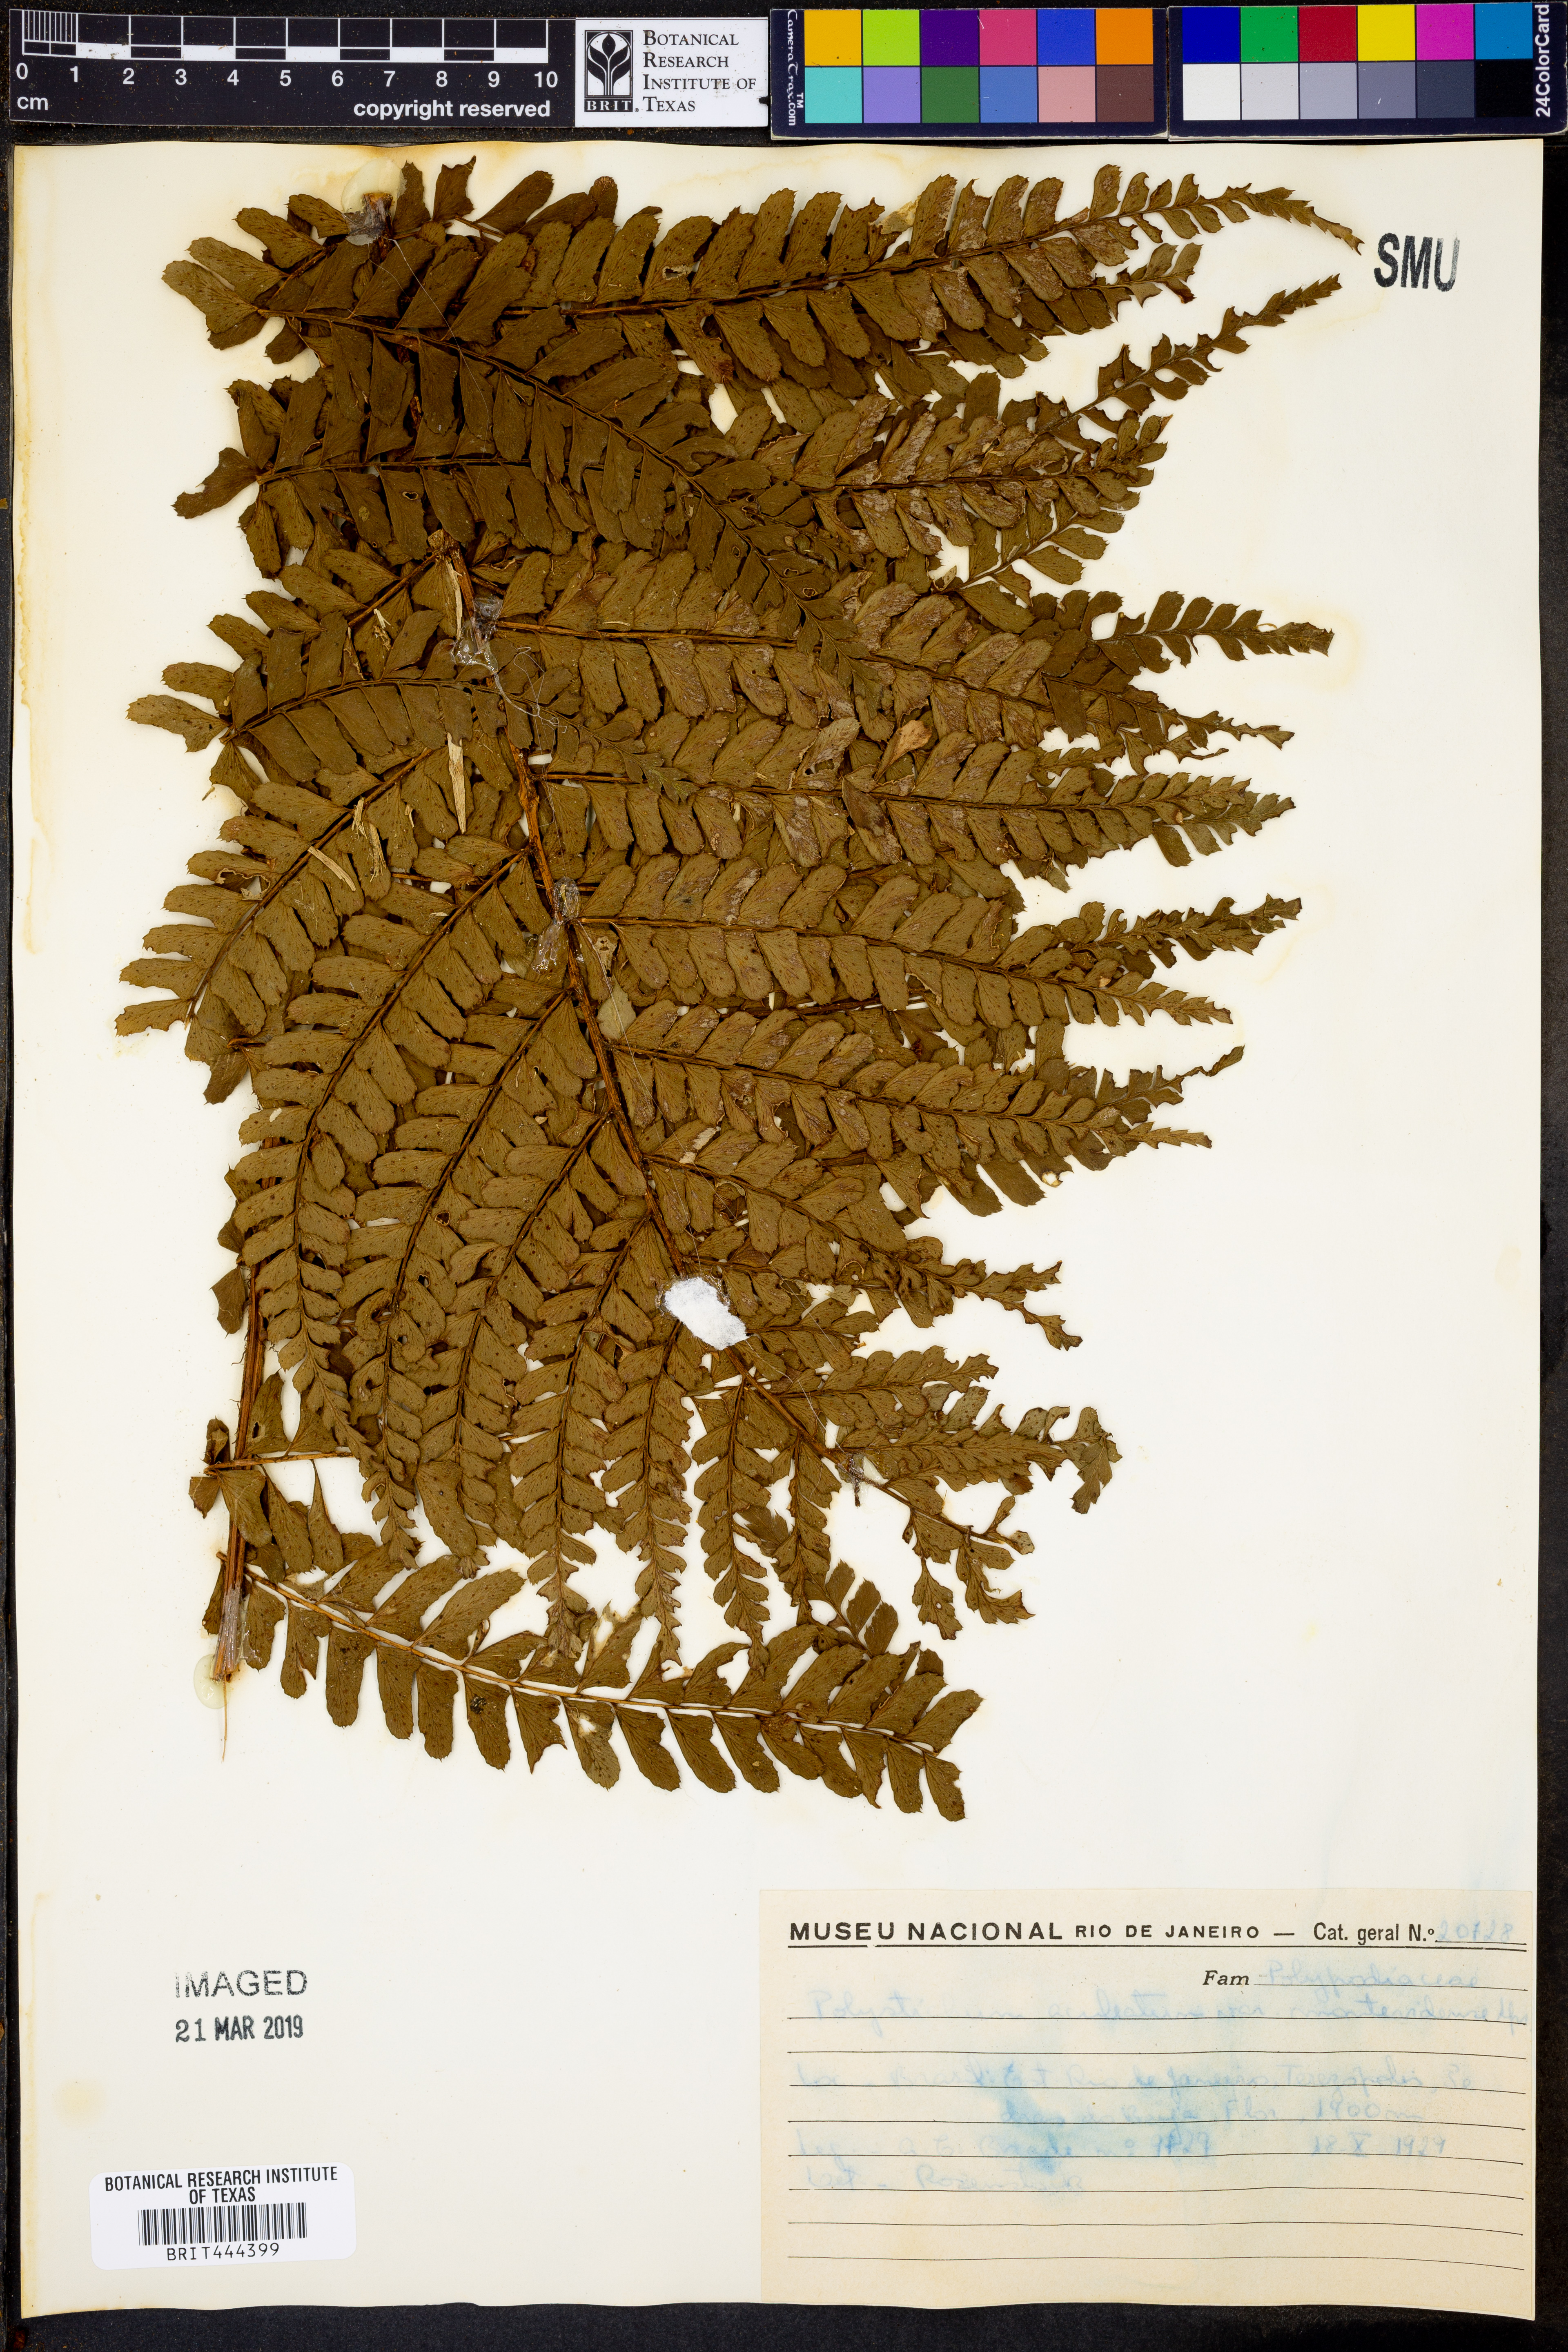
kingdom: Plantae
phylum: Tracheophyta
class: Polypodiopsida
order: Polypodiales
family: Dryopteridaceae
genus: Polystichum
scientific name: Polystichum aculeatum
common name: Hard shield-fern
